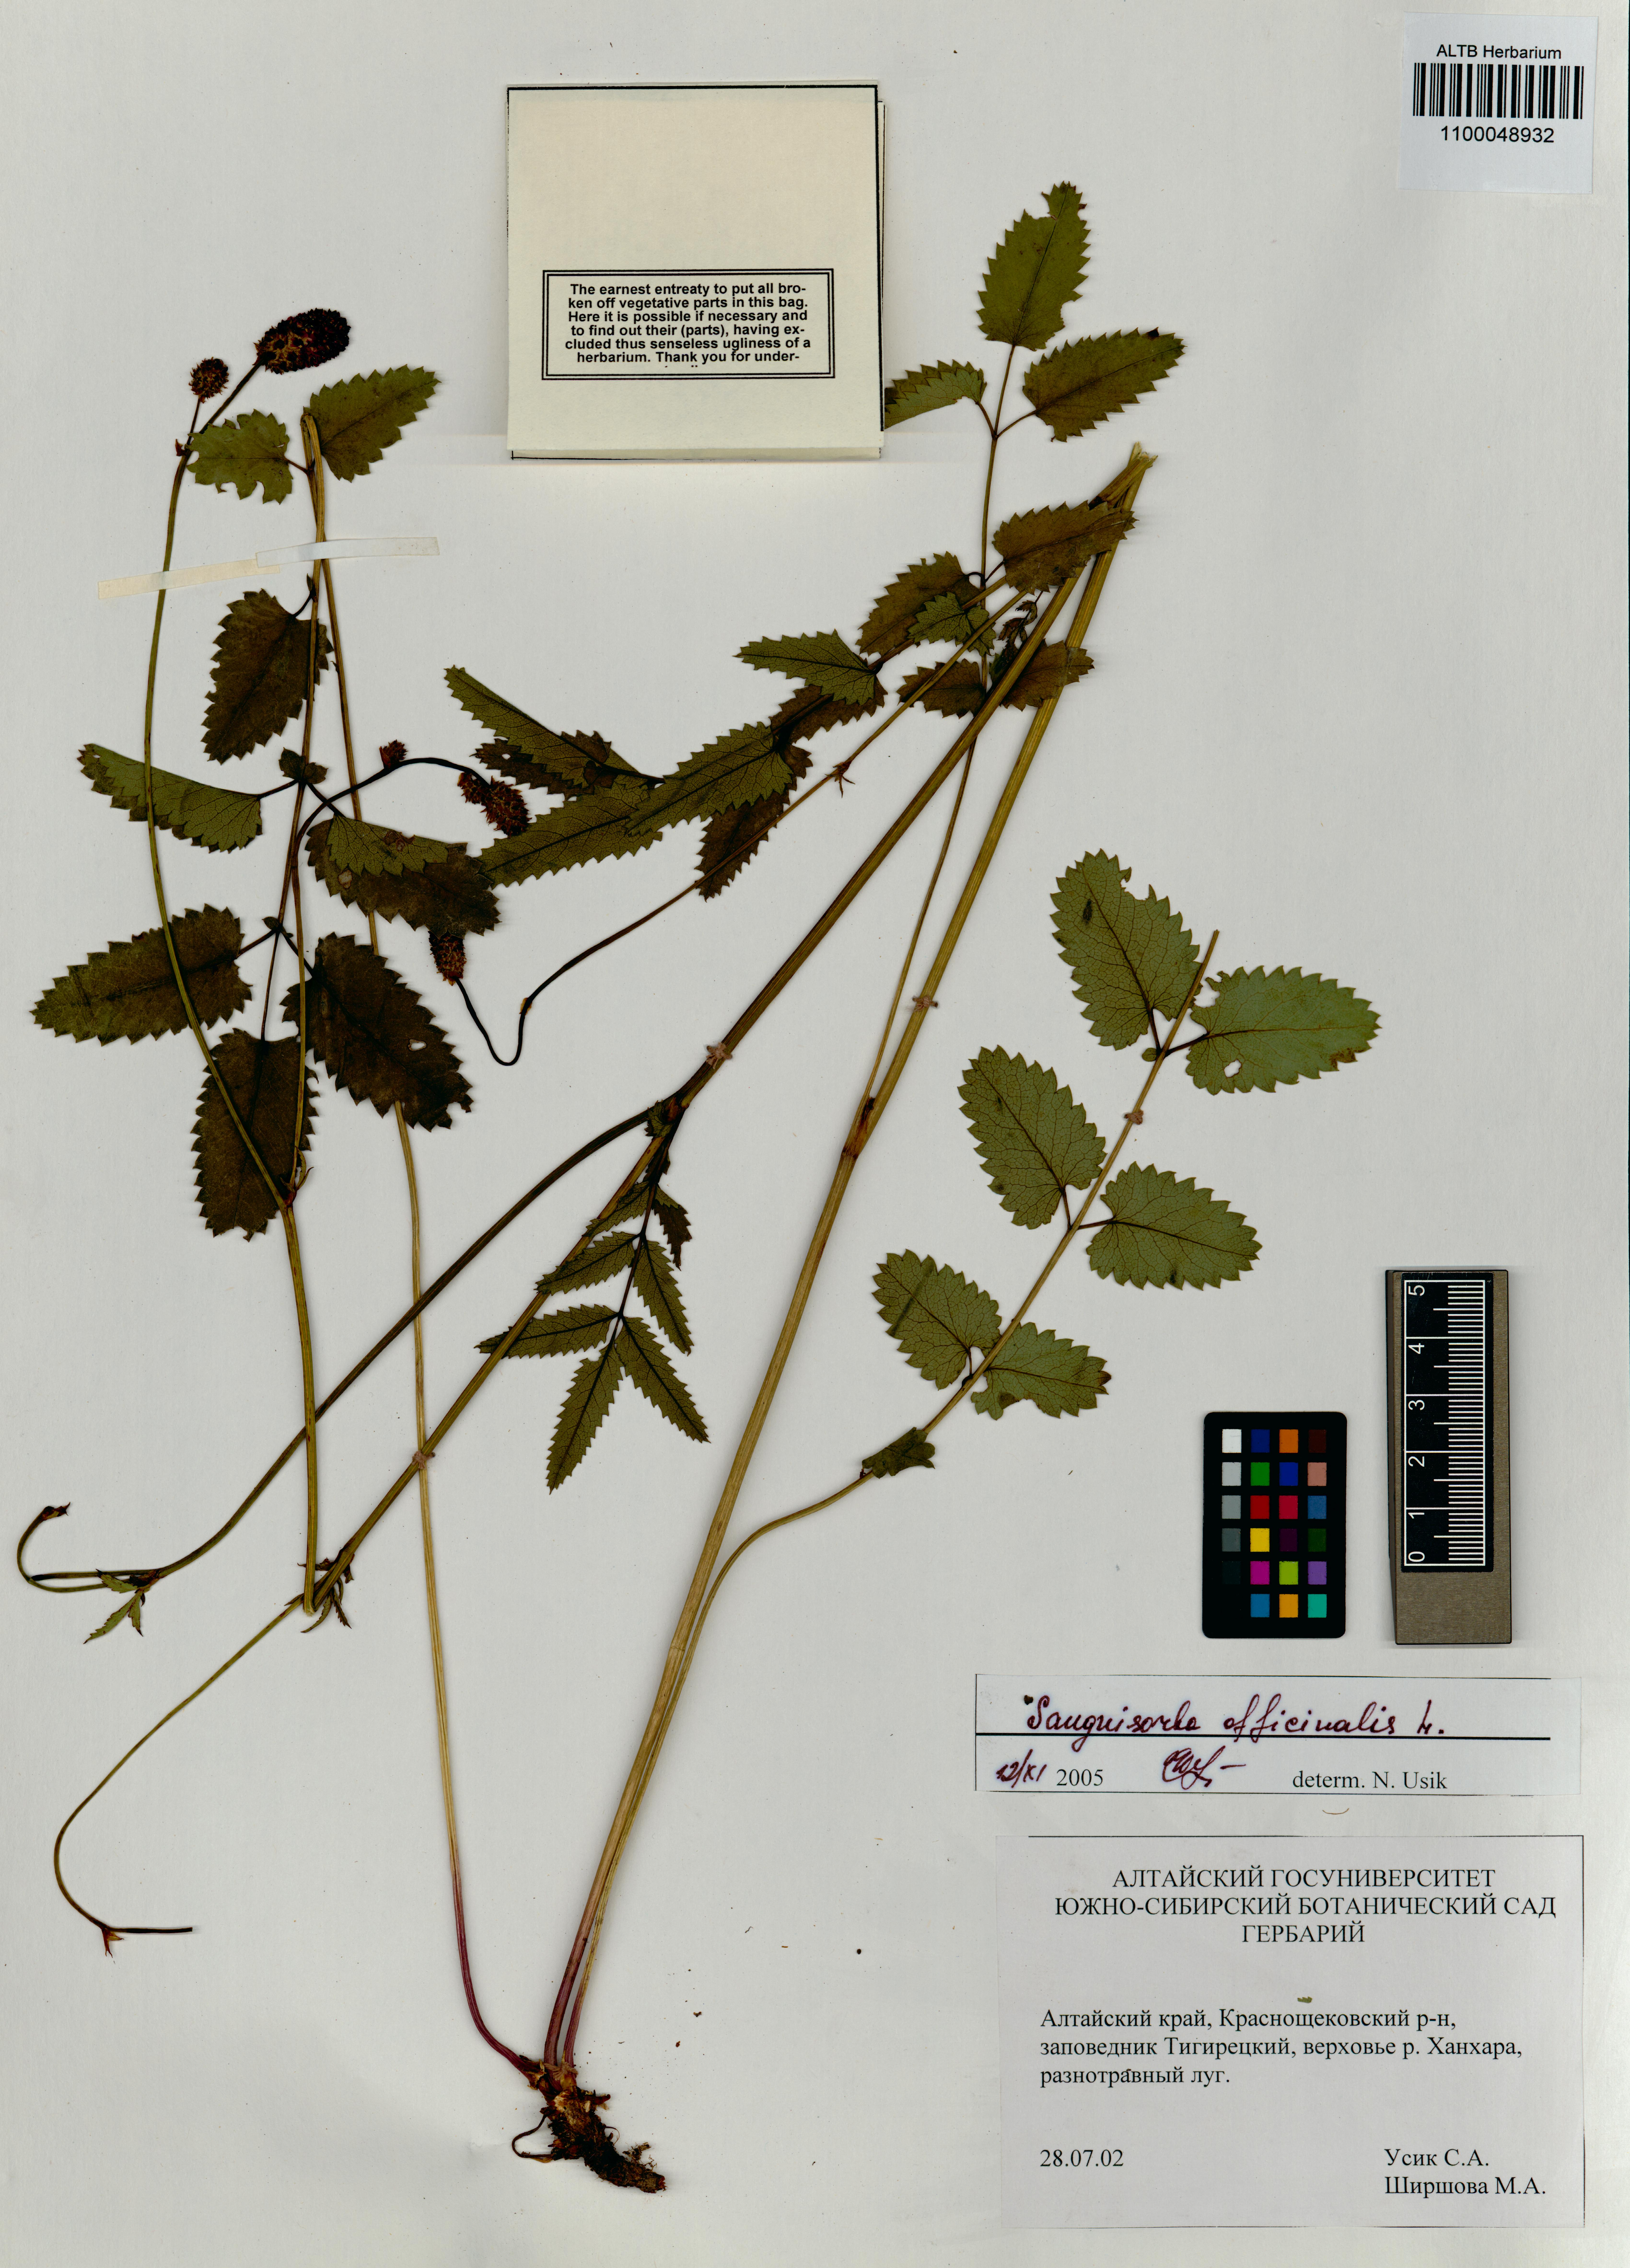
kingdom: Plantae
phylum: Tracheophyta
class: Magnoliopsida
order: Rosales
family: Rosaceae
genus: Sanguisorba
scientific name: Sanguisorba officinalis
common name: Great burnet
